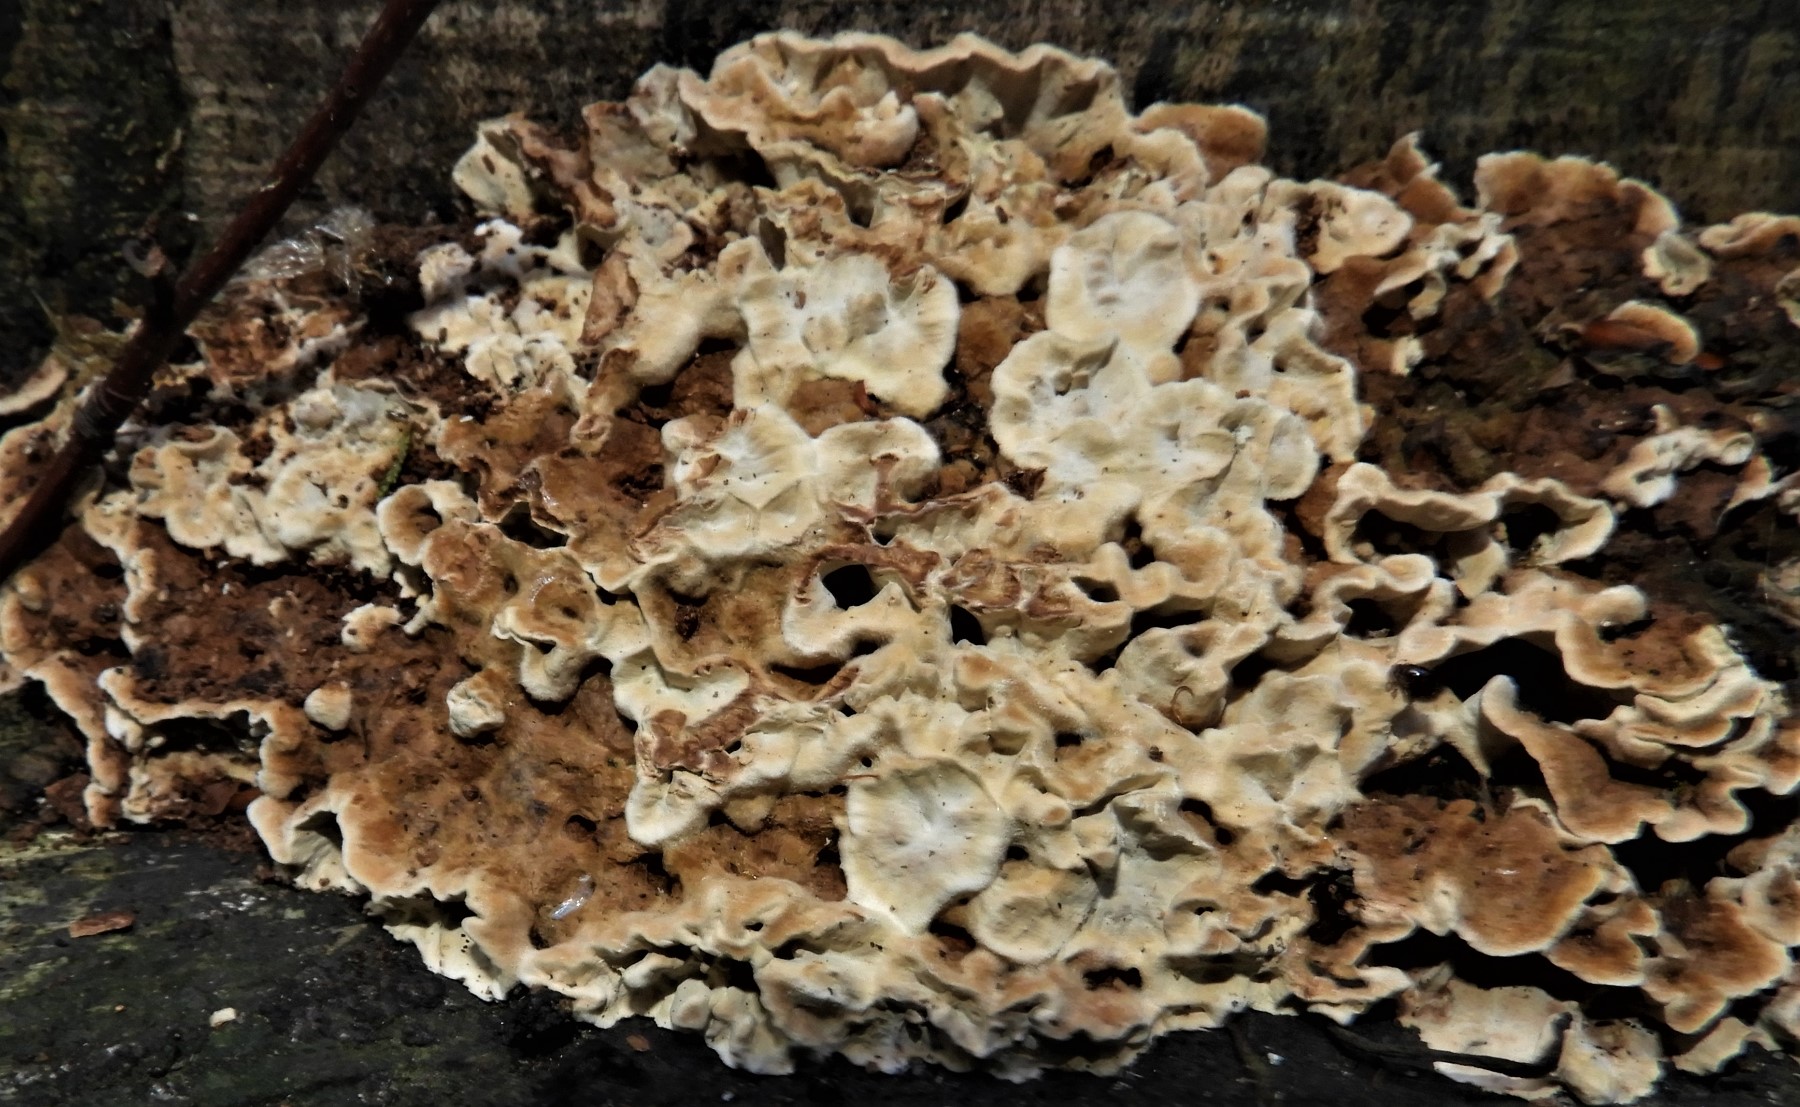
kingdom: Fungi
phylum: Basidiomycota
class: Agaricomycetes
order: Russulales
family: Hericiaceae
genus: Laxitextum
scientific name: Laxitextum bicolor
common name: tvefarvet filtskind
